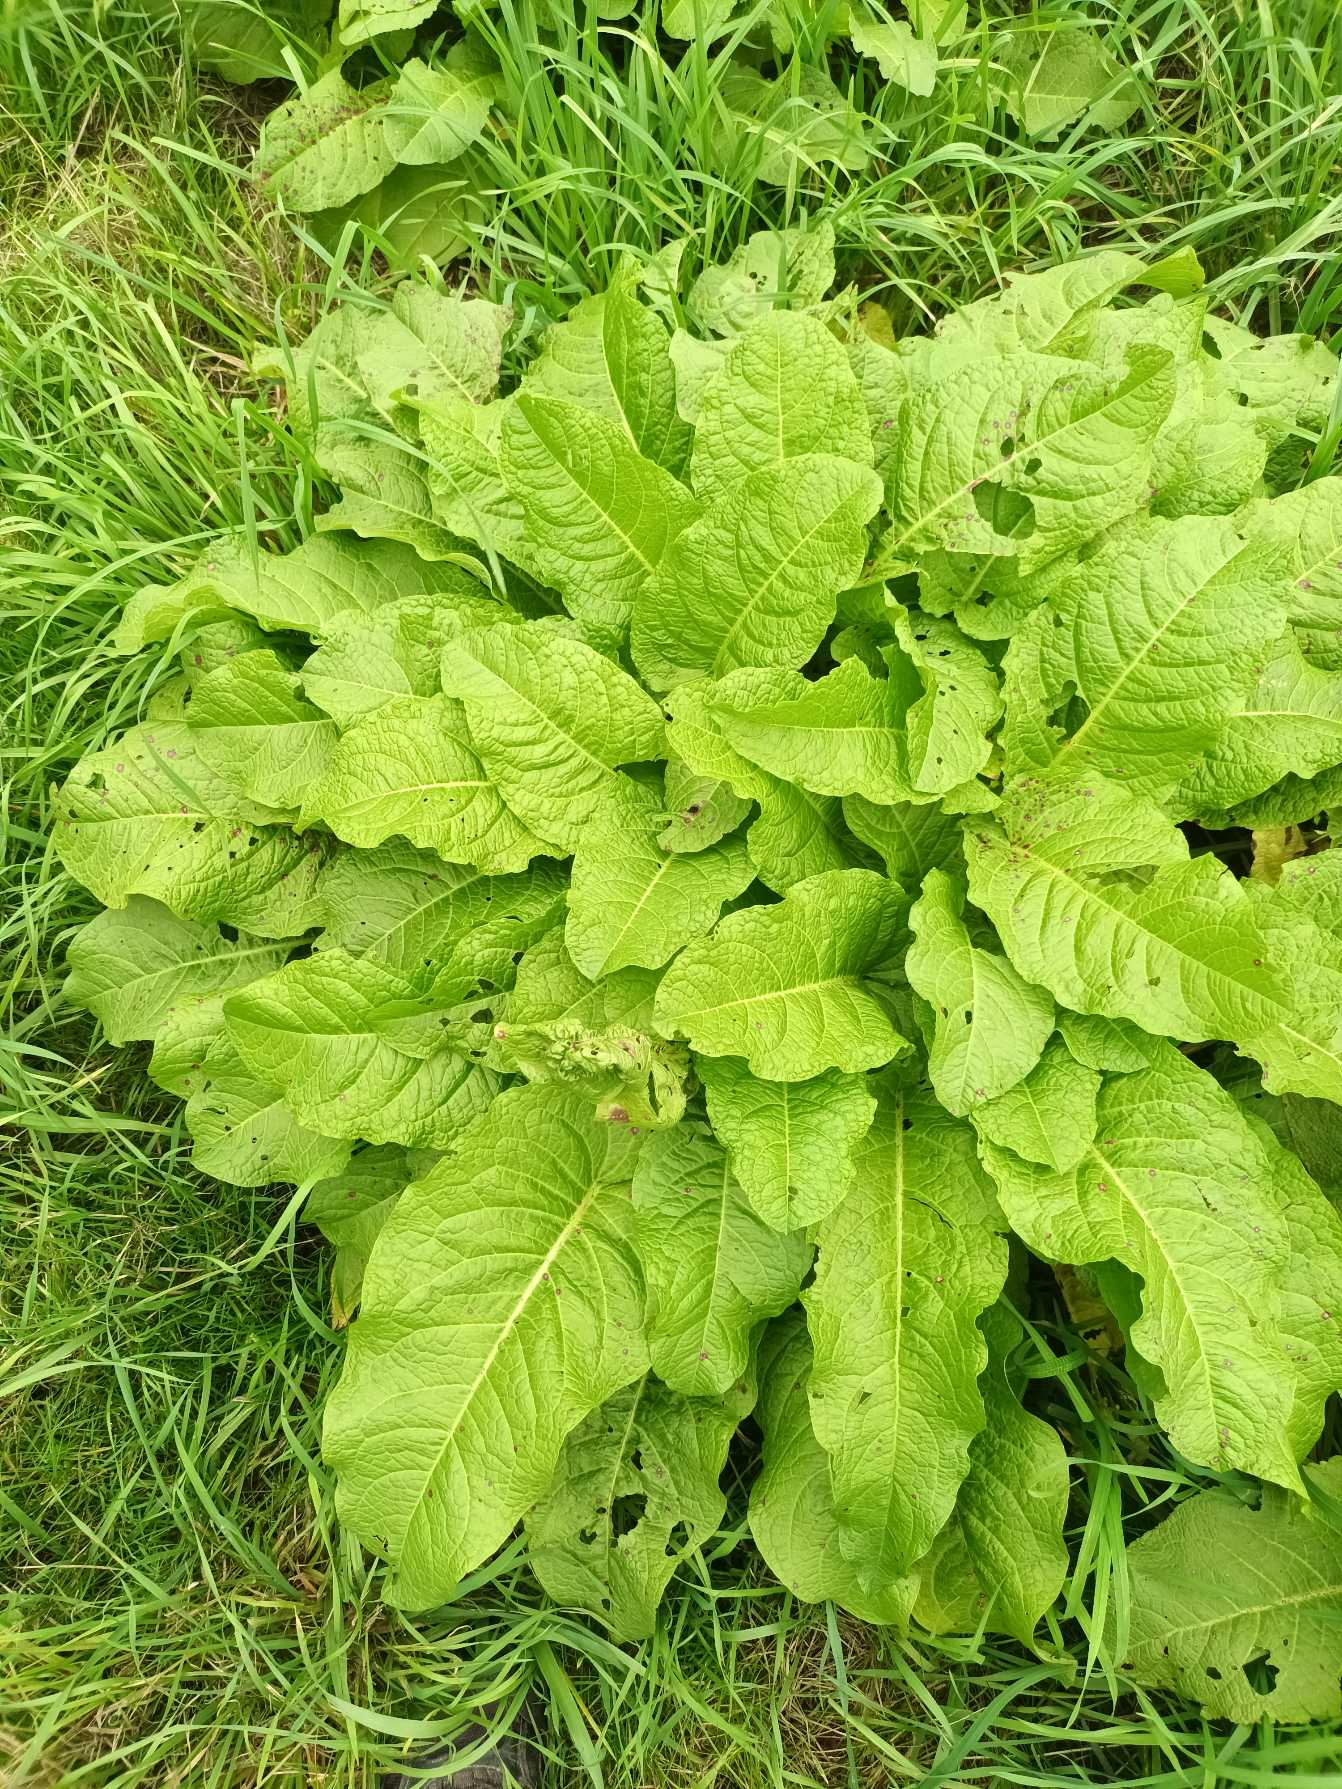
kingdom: Plantae
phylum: Tracheophyta
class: Magnoliopsida
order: Caryophyllales
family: Polygonaceae
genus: Rumex
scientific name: Rumex obtusifolius
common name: Butbladet skræppe
